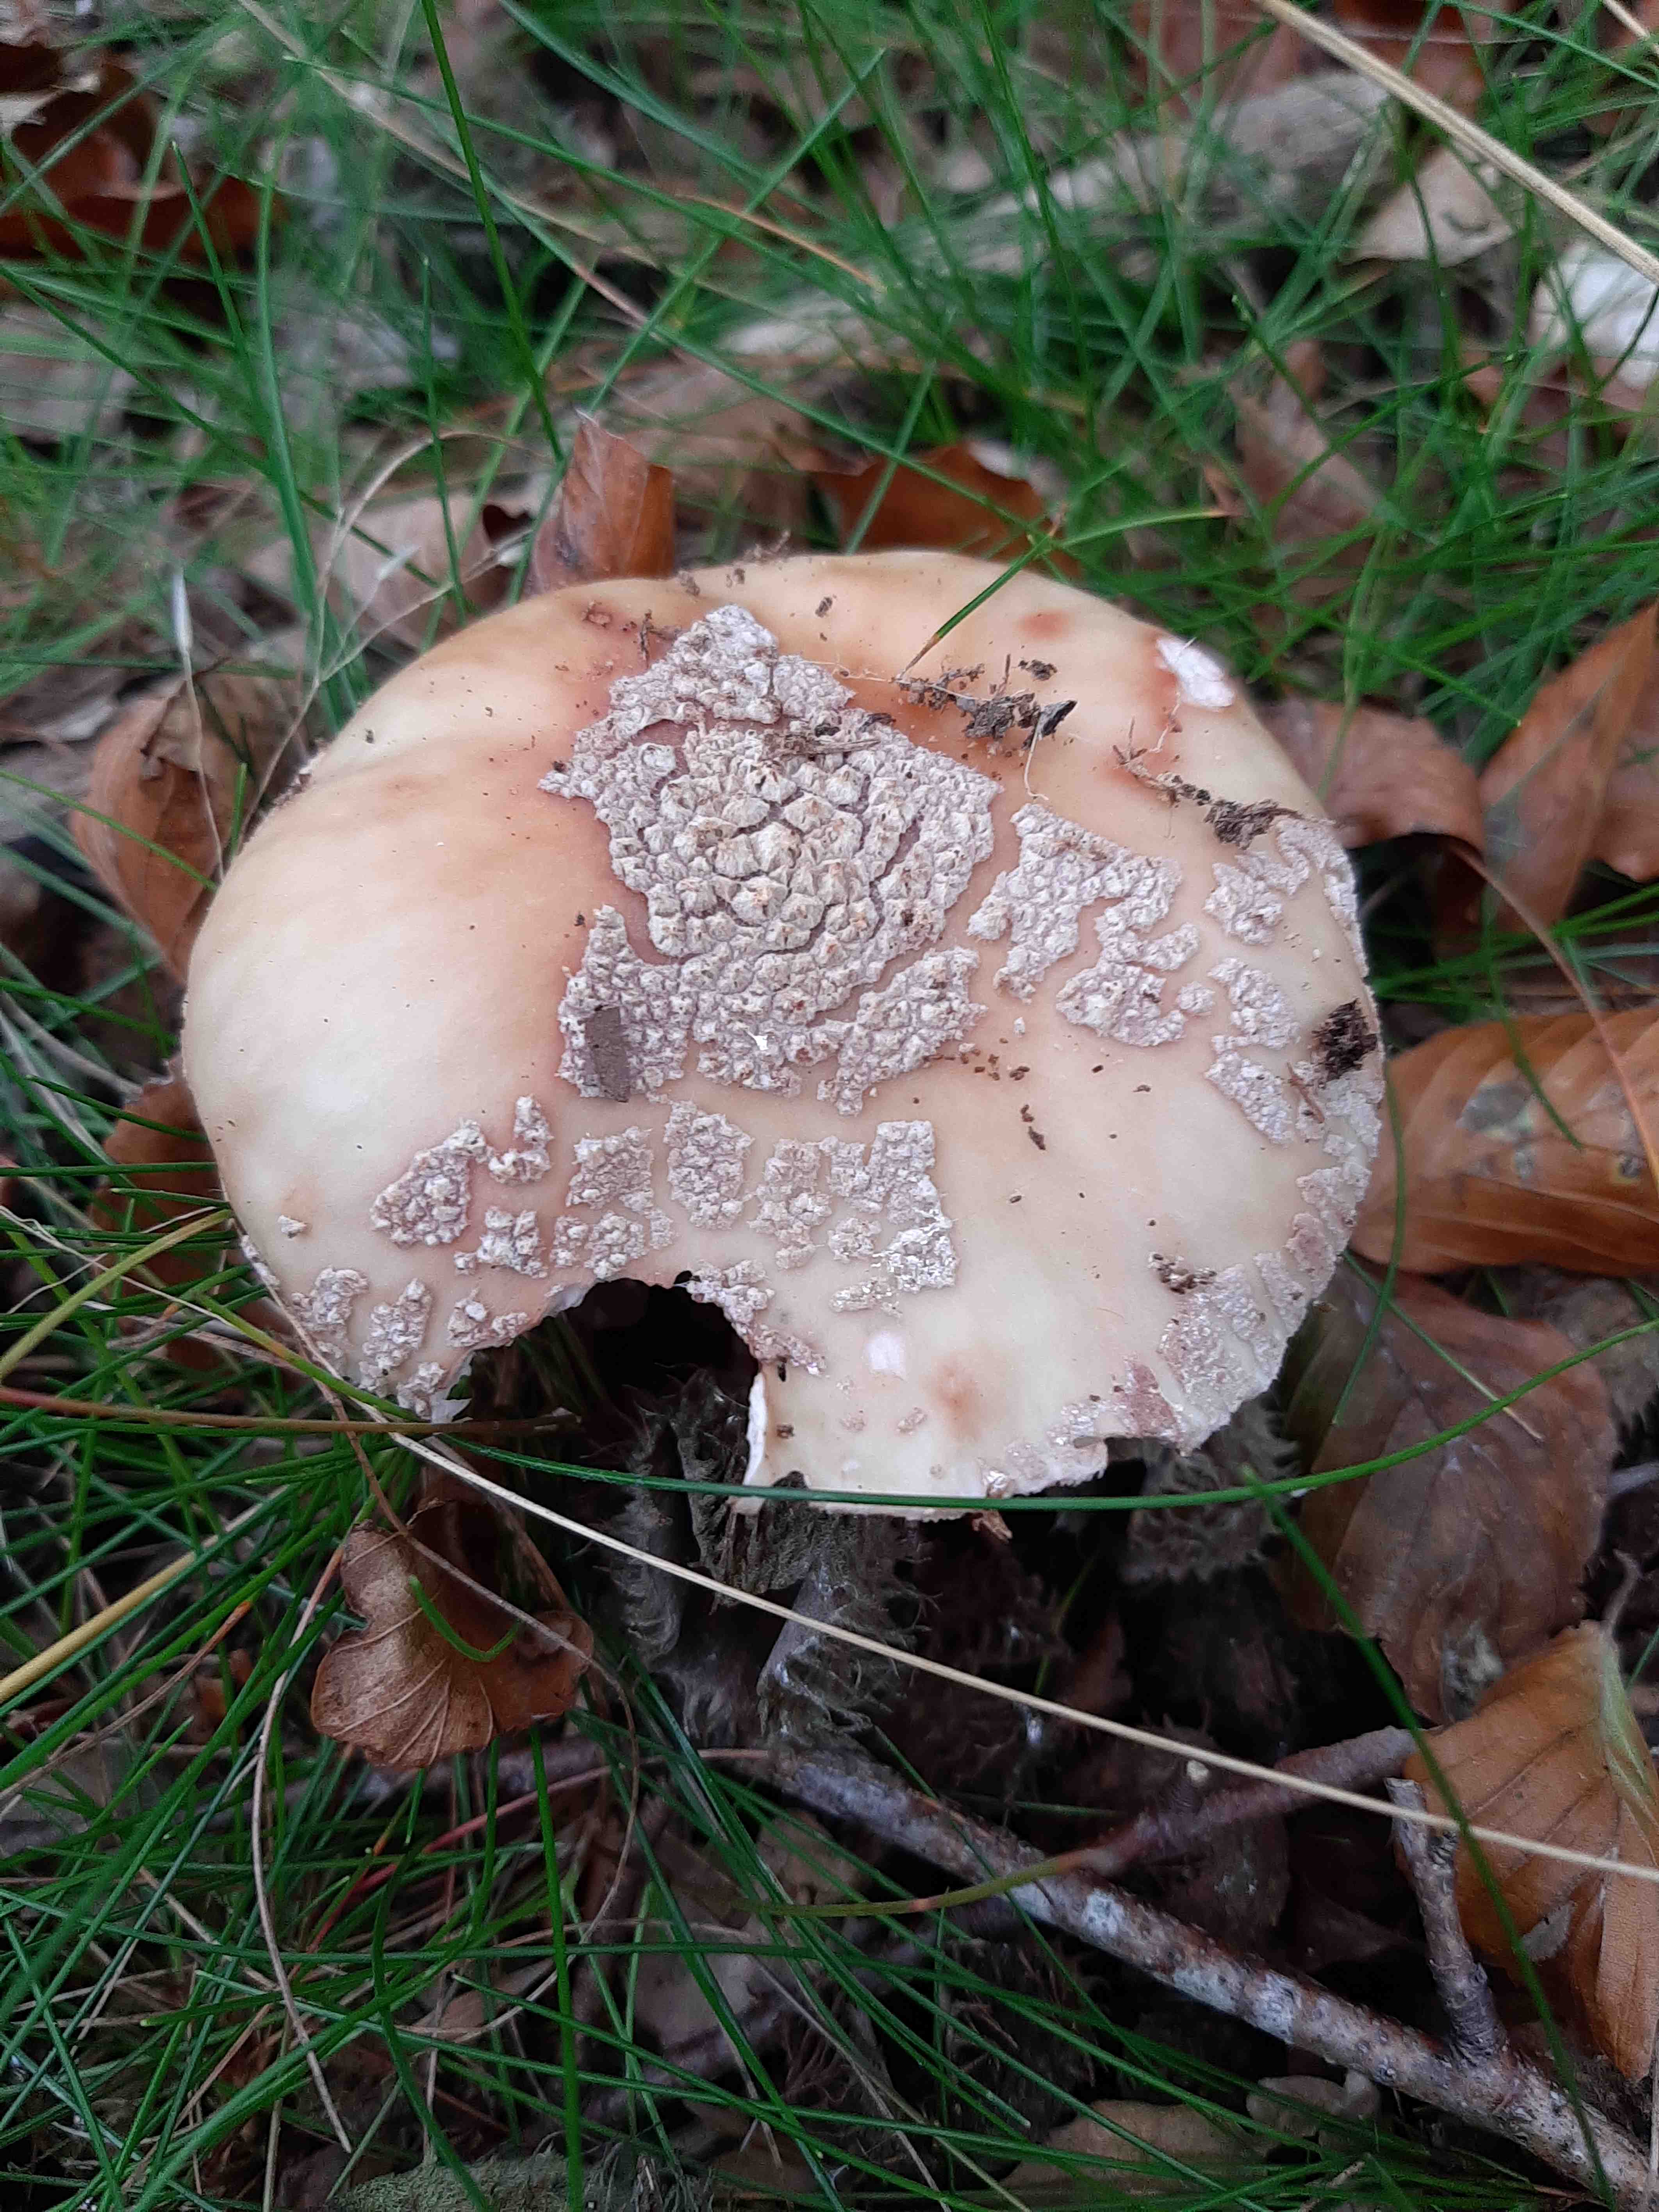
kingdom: Fungi
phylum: Basidiomycota
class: Agaricomycetes
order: Agaricales
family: Amanitaceae
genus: Amanita
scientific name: Amanita rubescens
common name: rødmende fluesvamp
